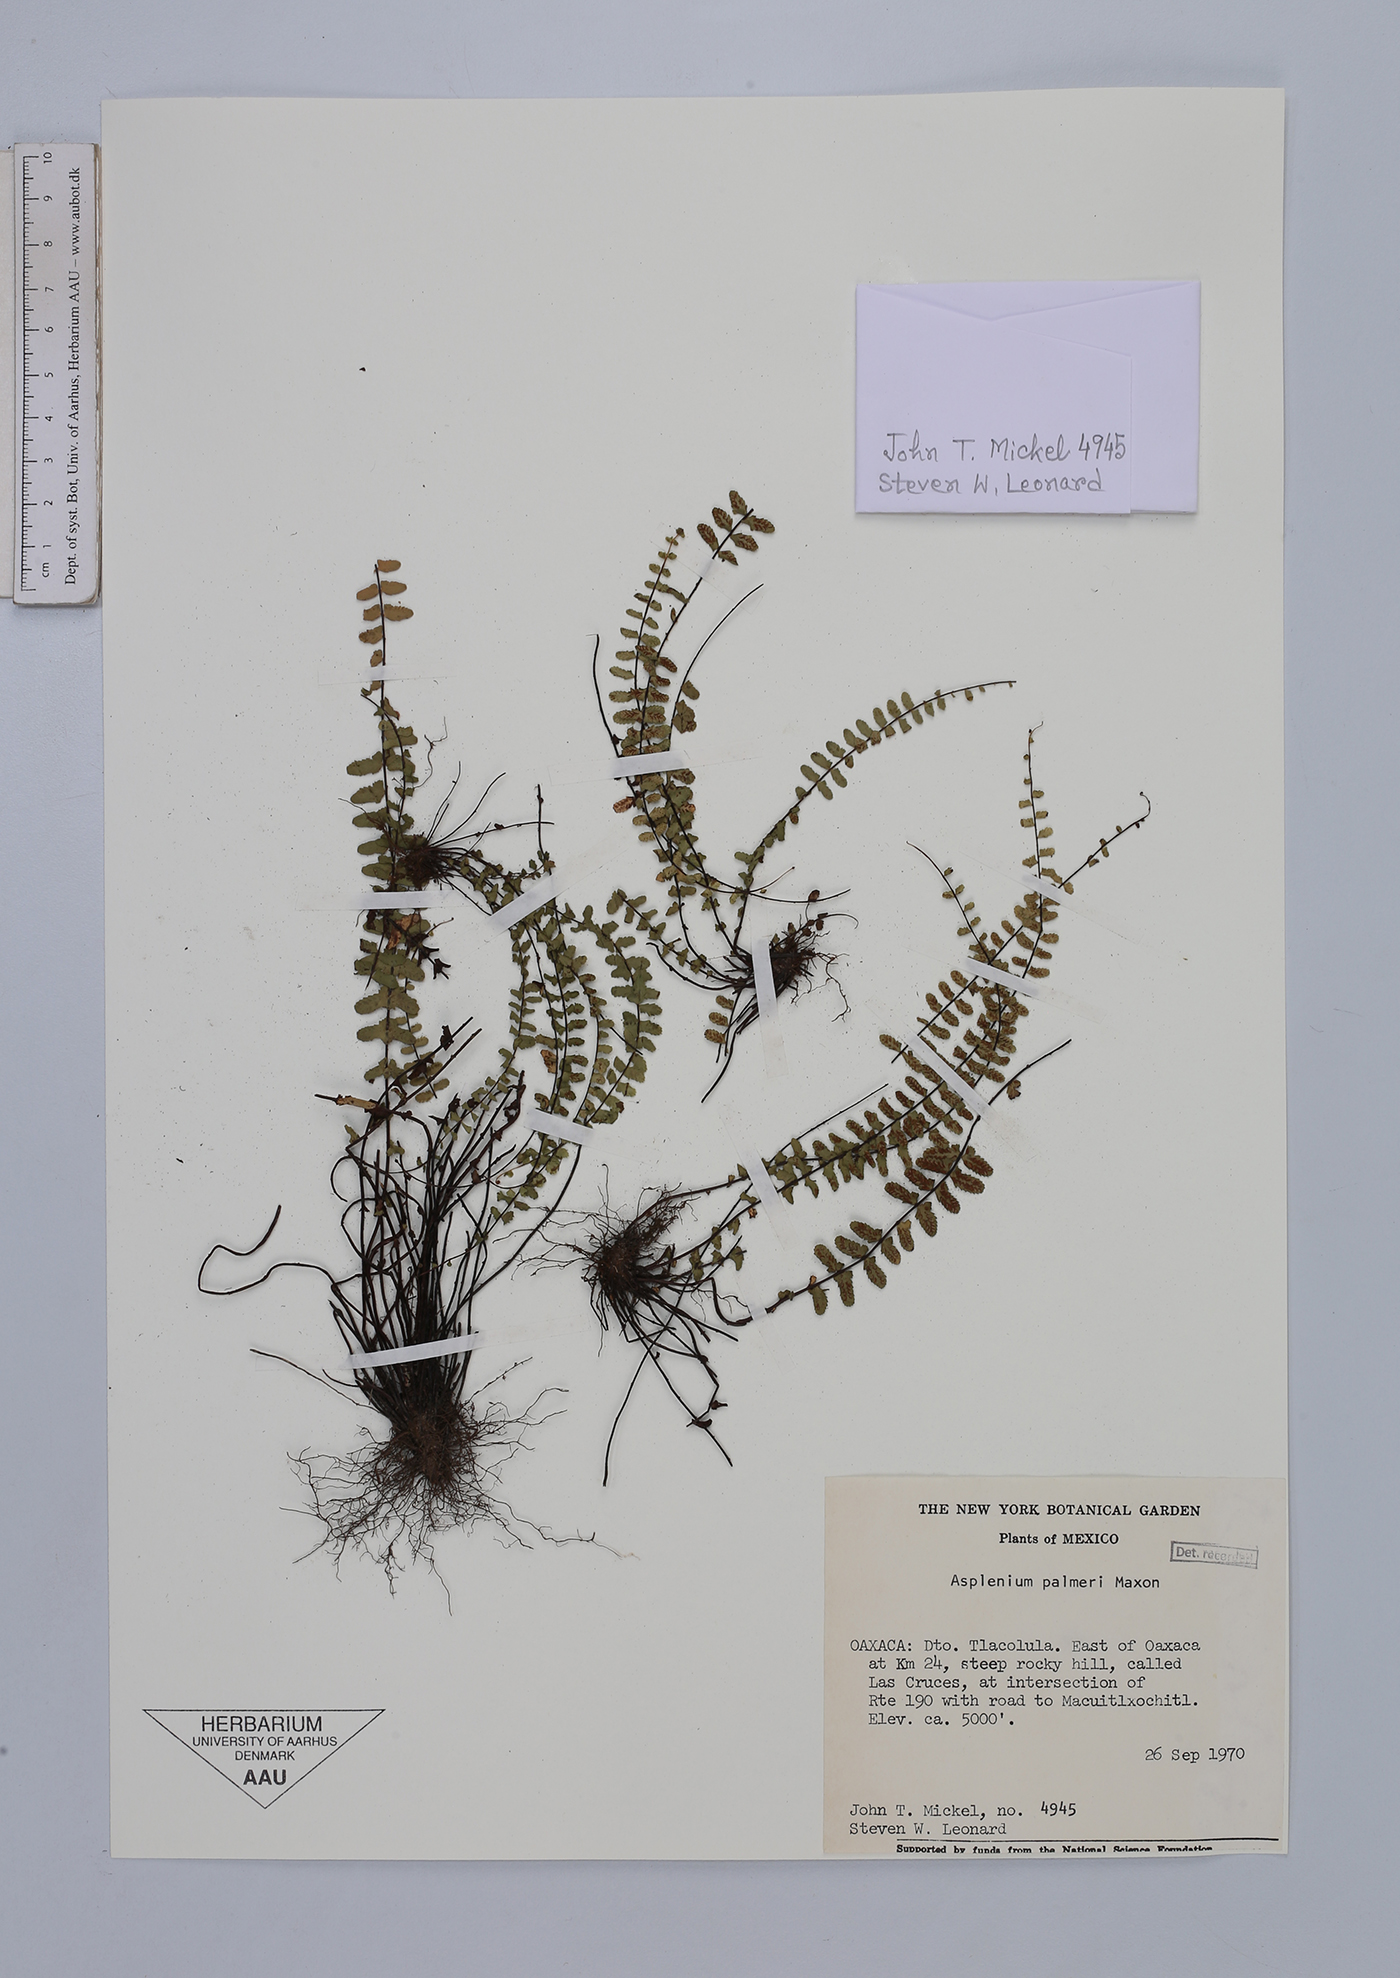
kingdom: Plantae
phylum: Tracheophyta
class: Polypodiopsida
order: Polypodiales
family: Aspleniaceae
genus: Asplenium
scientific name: Asplenium palmeri
